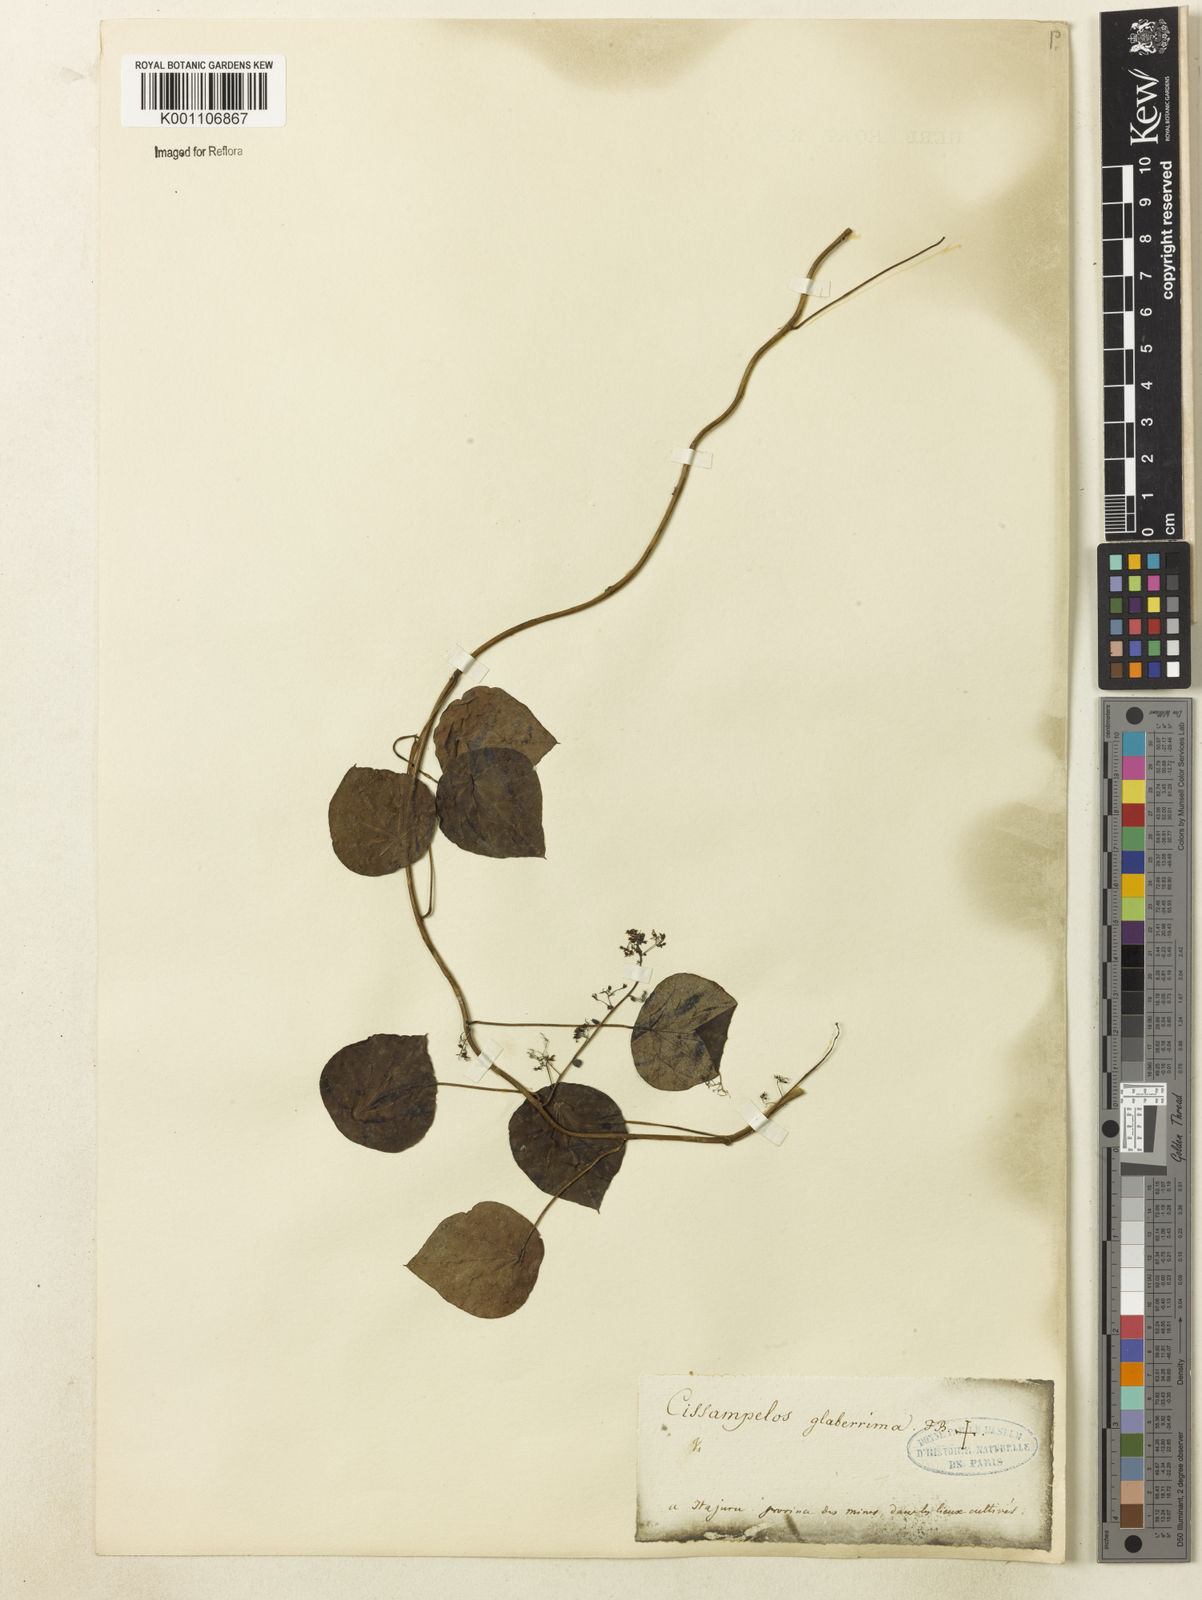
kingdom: Plantae
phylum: Tracheophyta
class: Magnoliopsida
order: Ranunculales
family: Menispermaceae
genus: Cissampelos
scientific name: Cissampelos glaberrima
